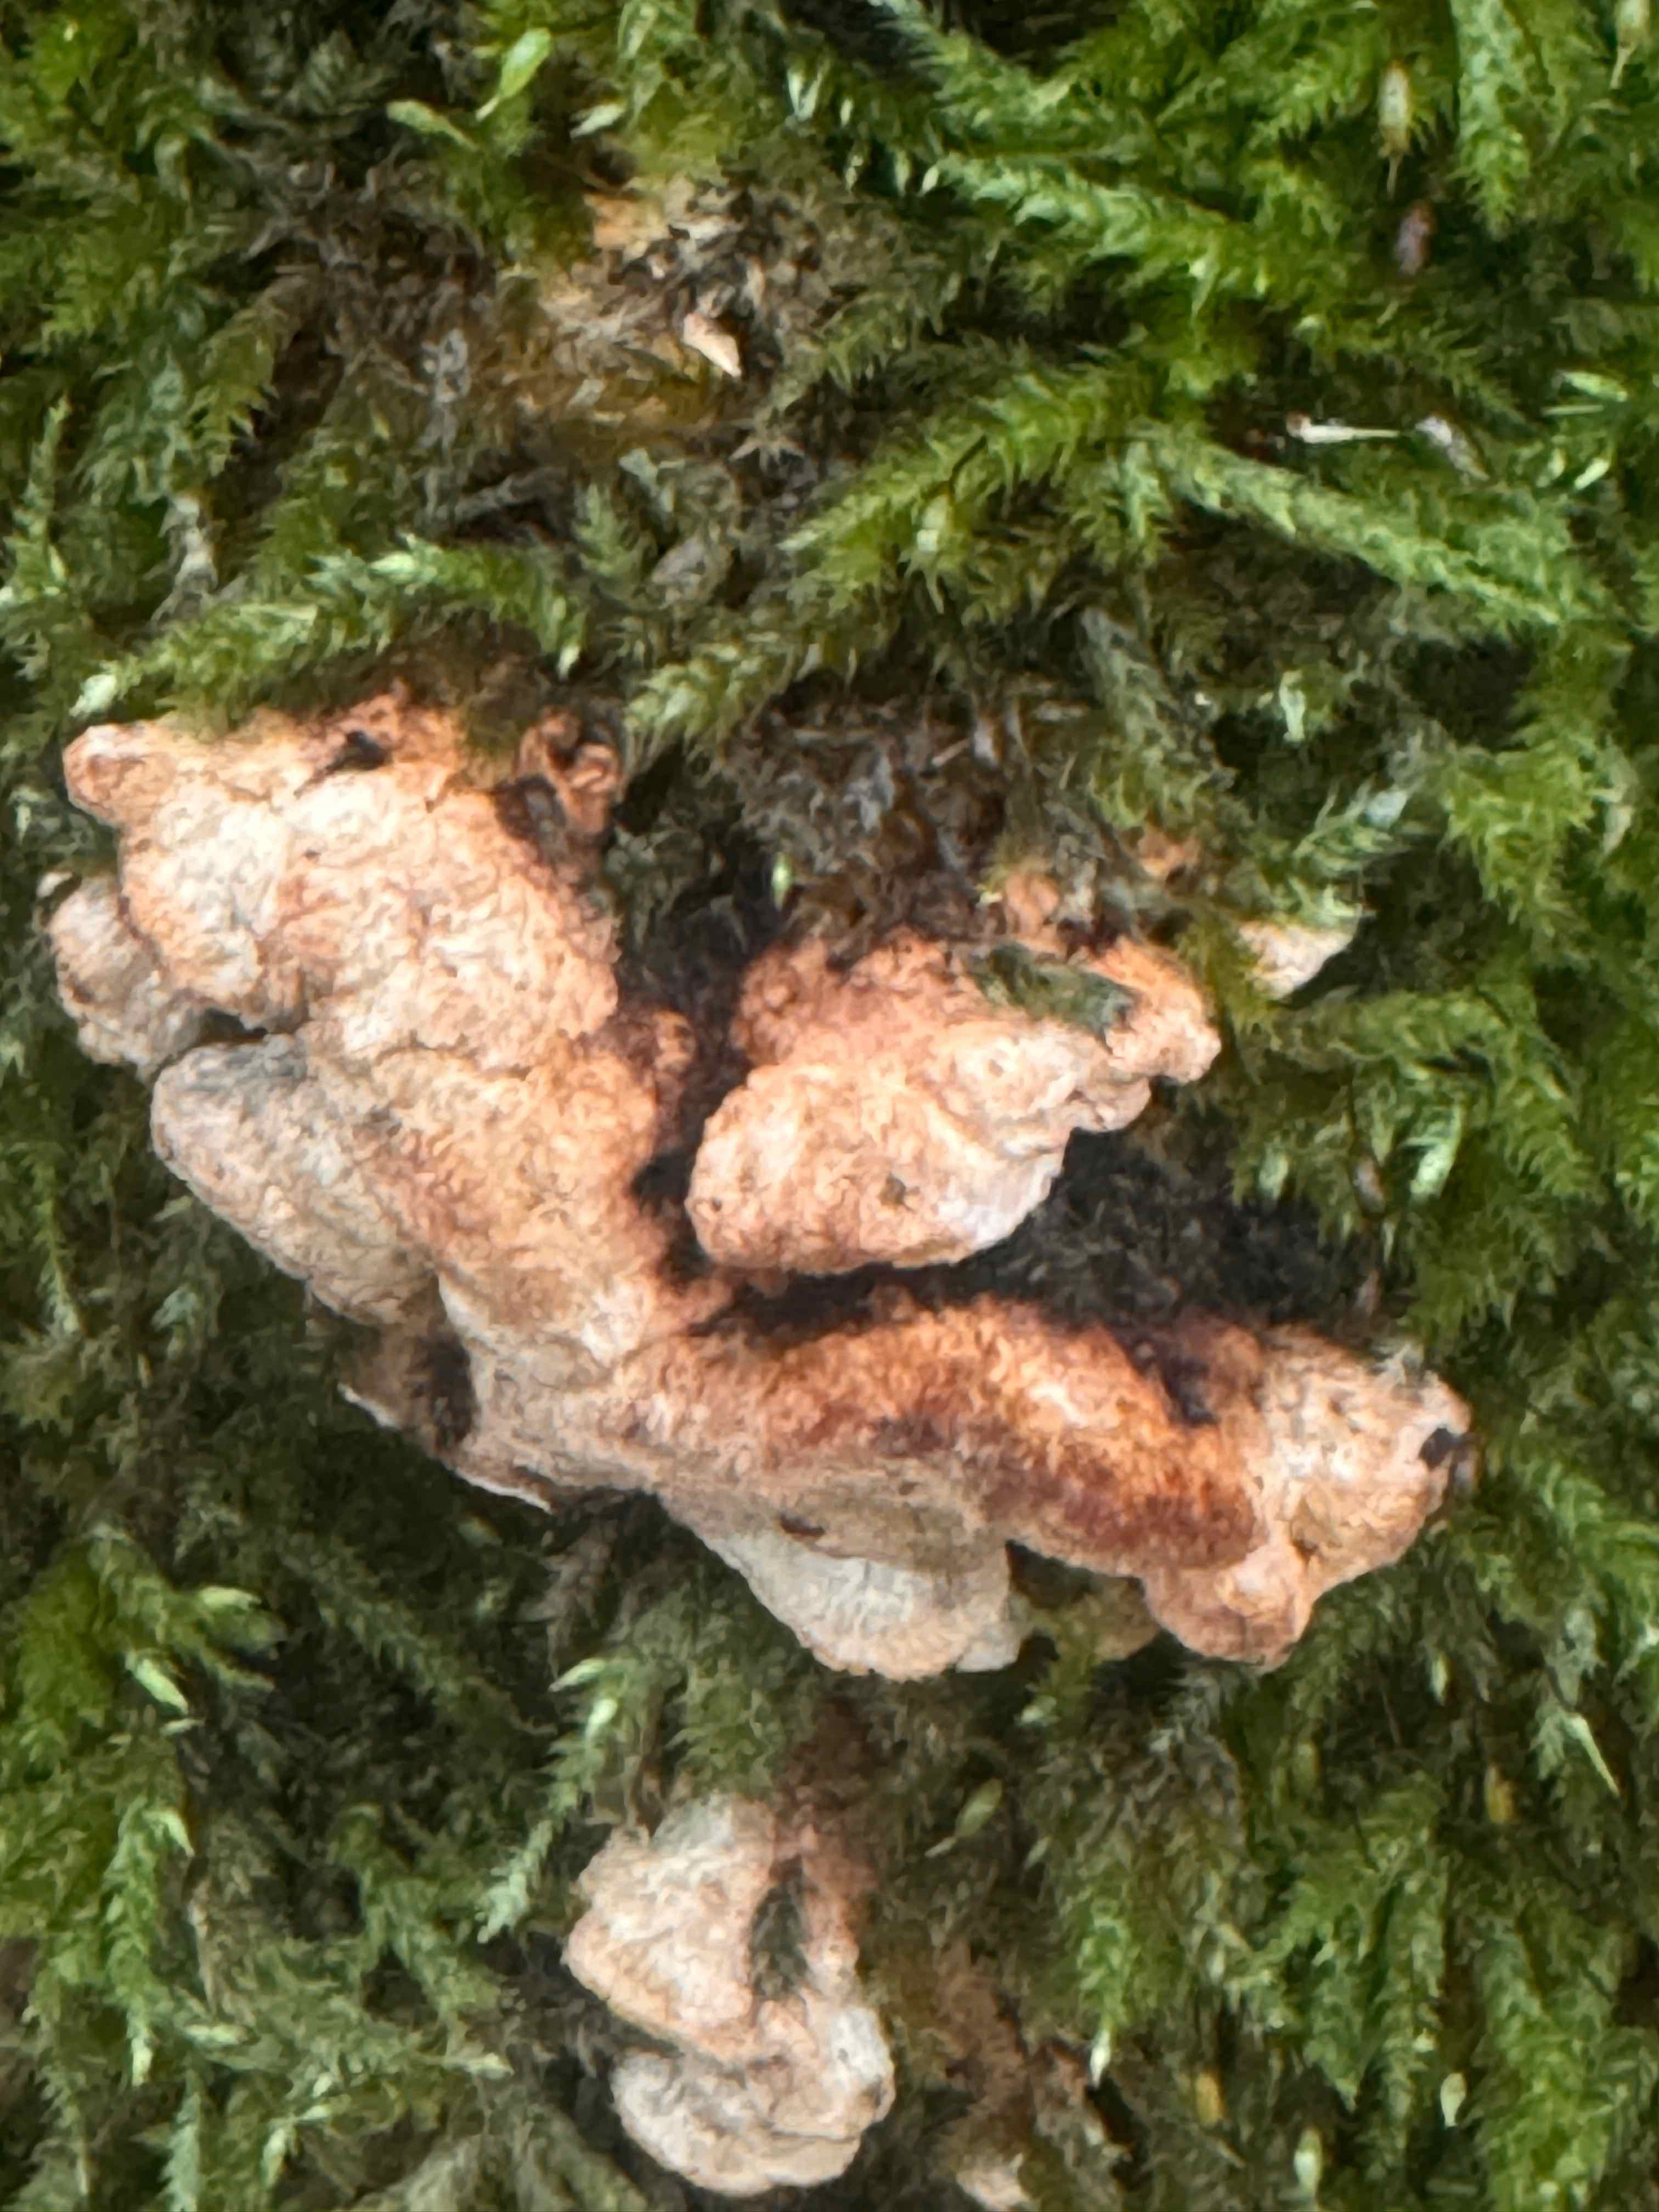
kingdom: Fungi
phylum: Basidiomycota
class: Agaricomycetes
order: Polyporales
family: Incrustoporiaceae
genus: Skeletocutis
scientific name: Skeletocutis nemoralis
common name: stor krystalporesvamp
